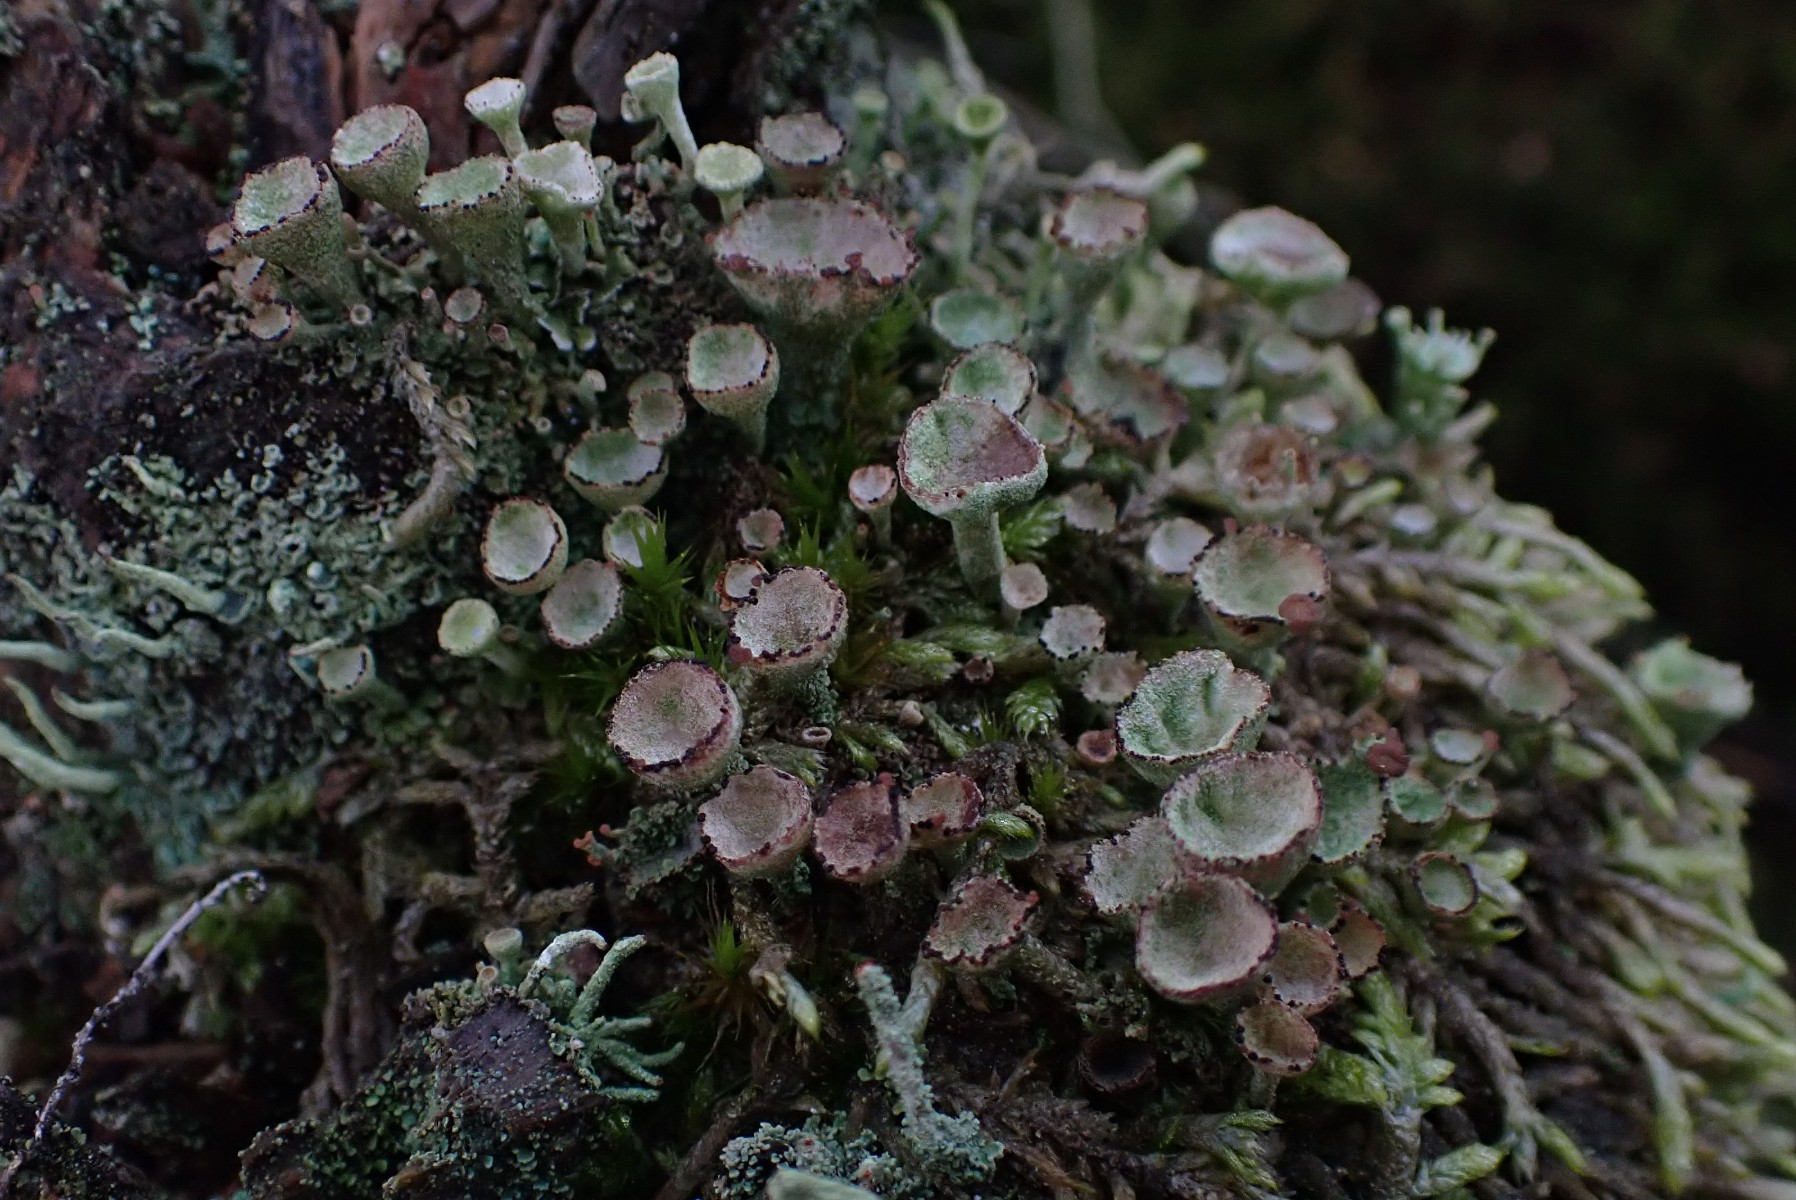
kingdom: Fungi
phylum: Ascomycota
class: Lecanoromycetes
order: Lecanorales
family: Cladoniaceae
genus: Cladonia
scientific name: Cladonia
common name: brungrøn bægerlav
